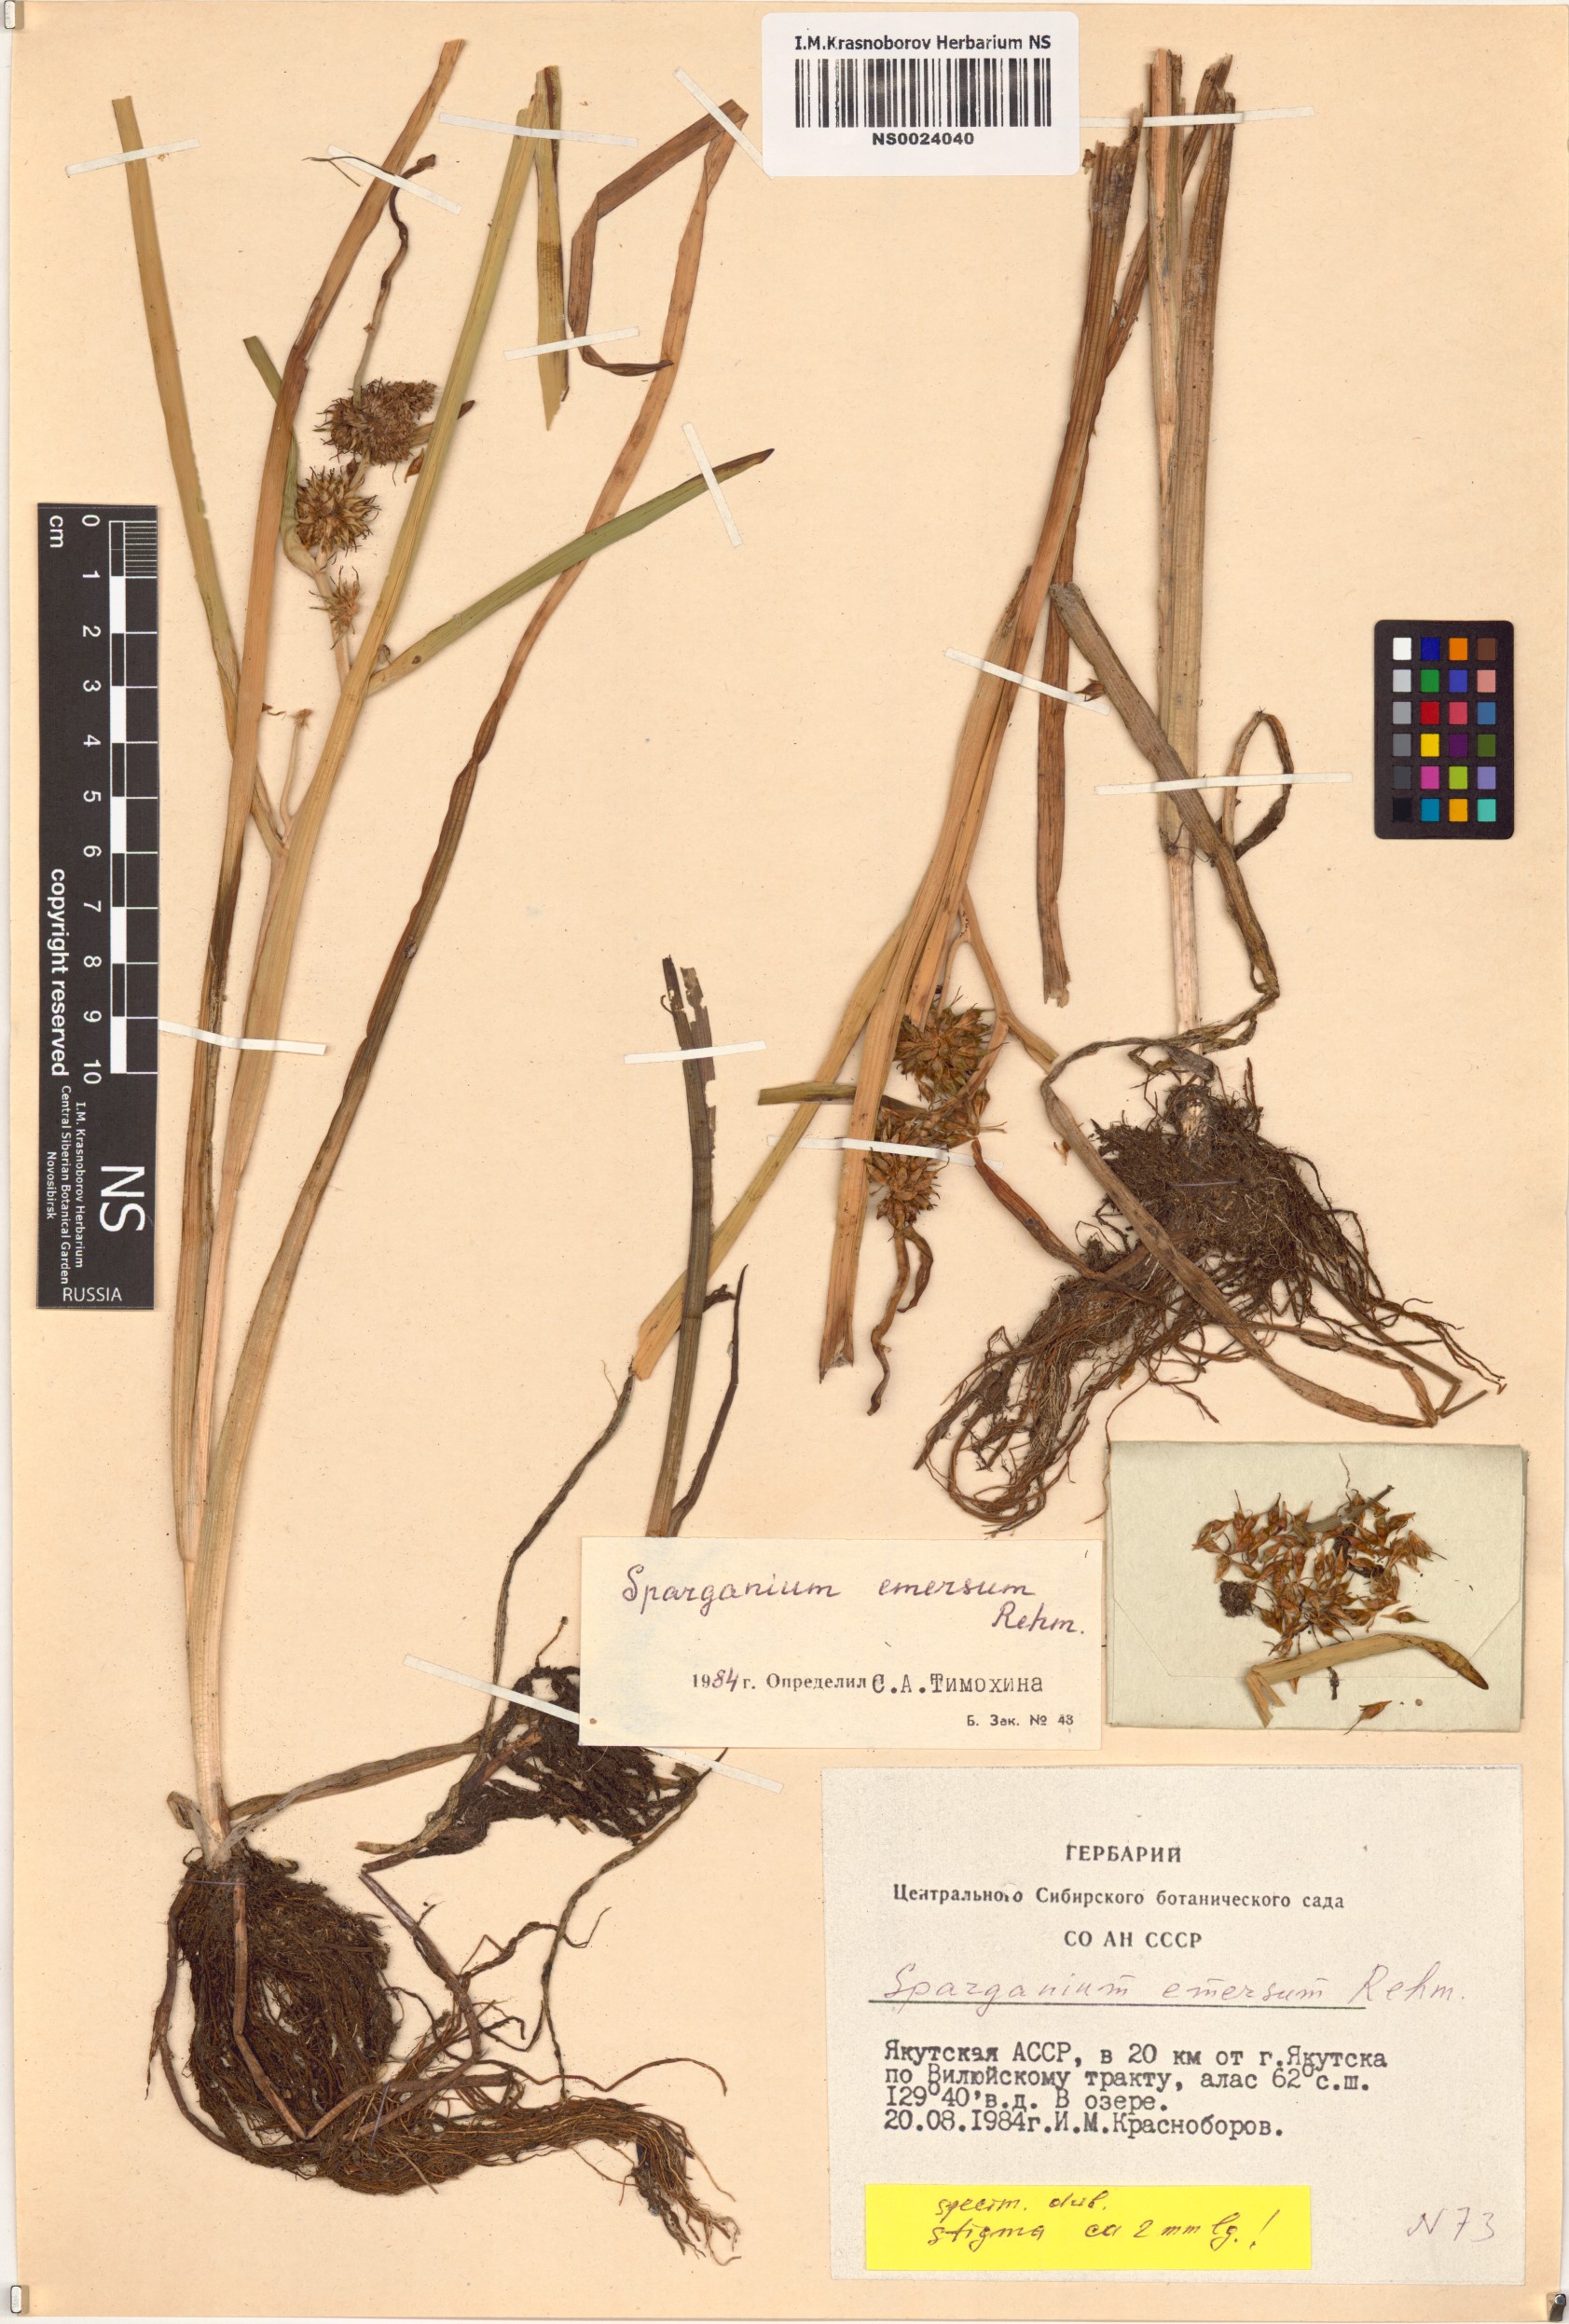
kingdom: Plantae
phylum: Tracheophyta
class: Liliopsida
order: Poales
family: Typhaceae
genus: Sparganium
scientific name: Sparganium emersum
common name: Unbranched bur-reed
